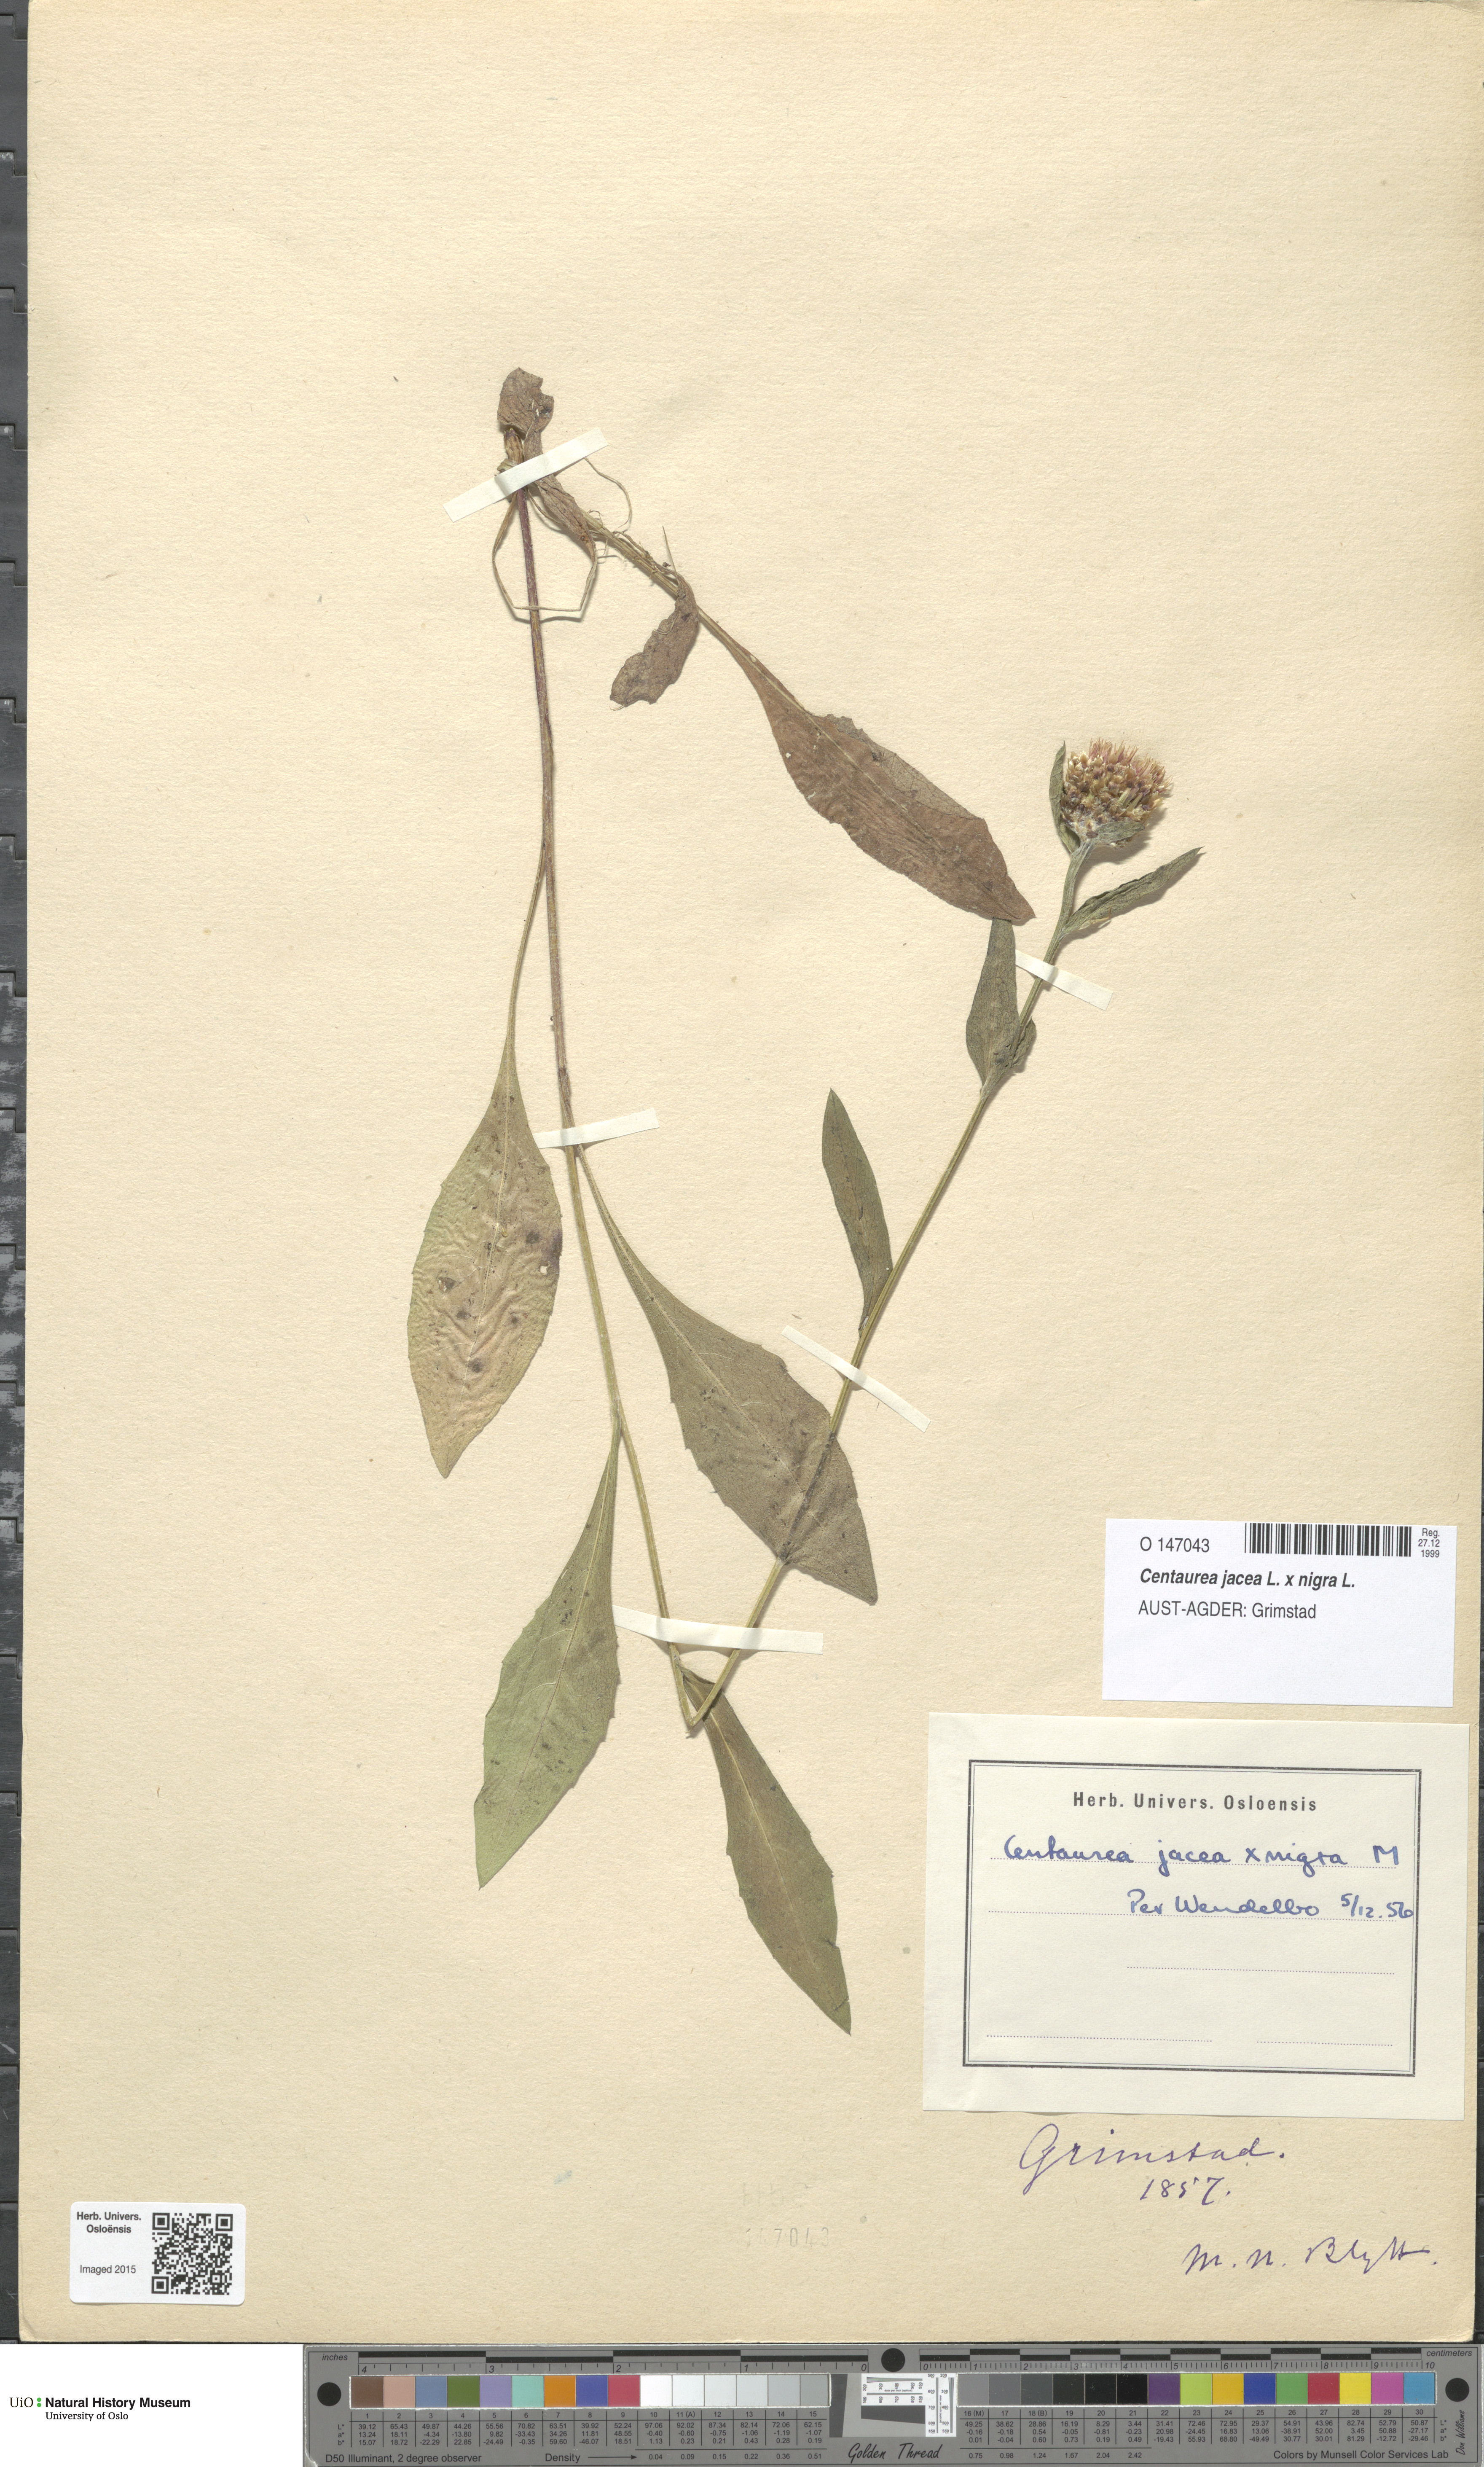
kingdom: Plantae
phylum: Tracheophyta
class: Magnoliopsida
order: Asterales
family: Asteraceae
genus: Centaurea
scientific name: Centaurea
